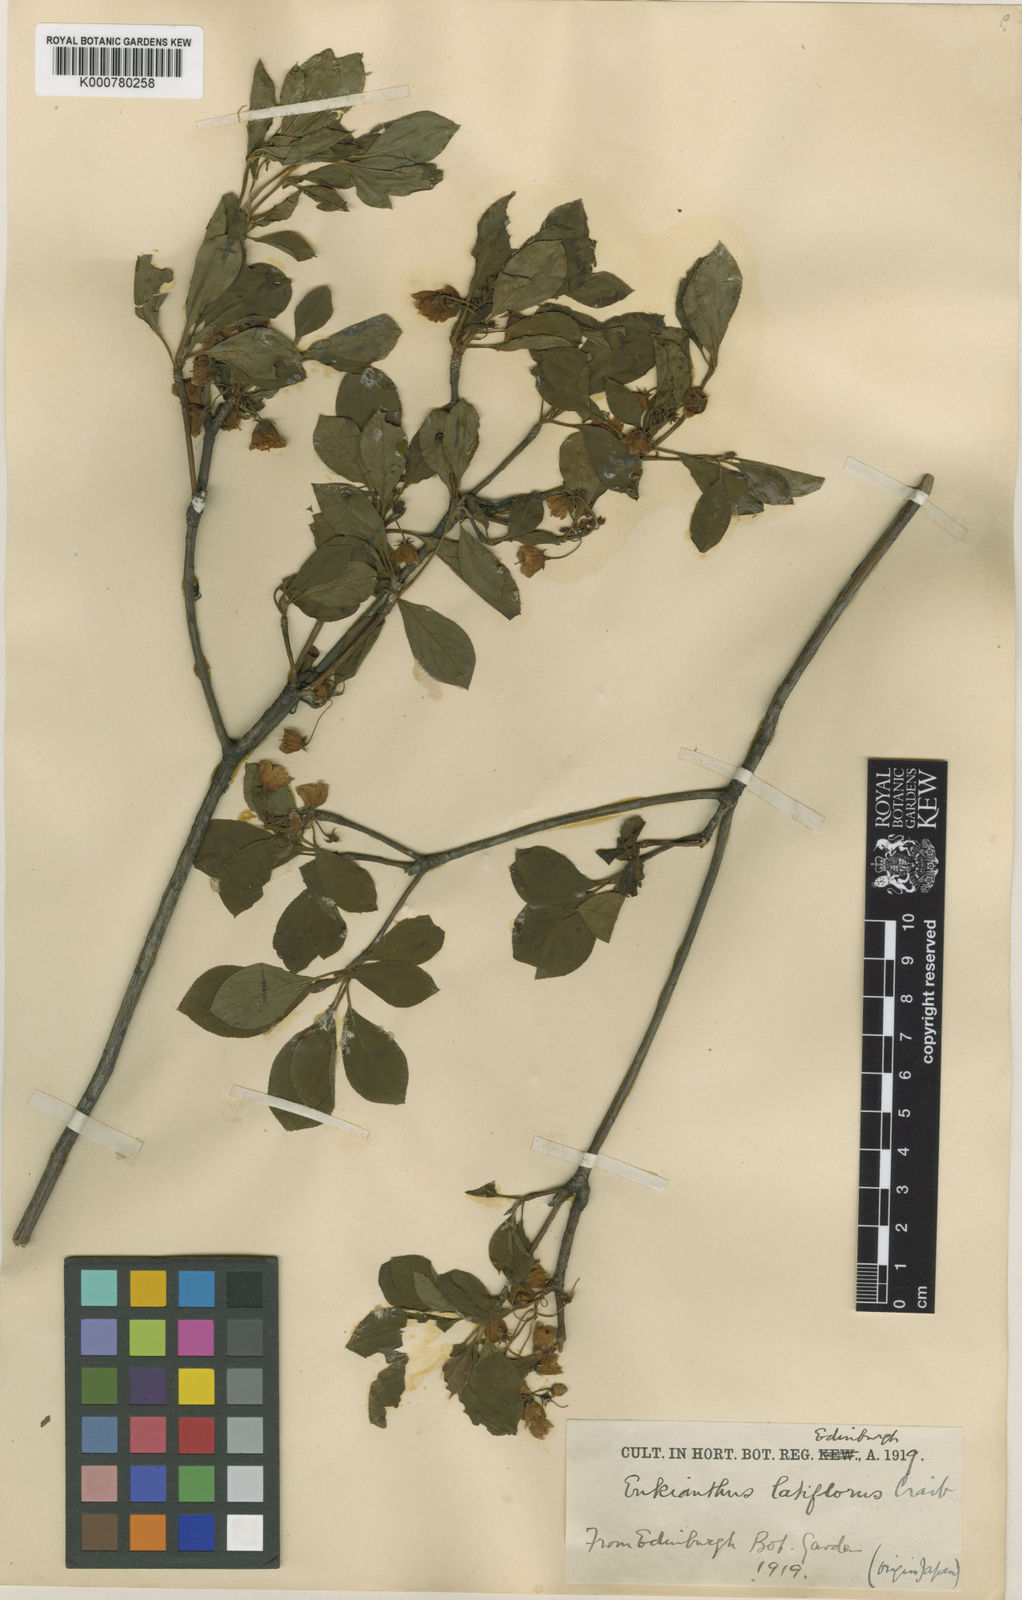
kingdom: Plantae
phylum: Tracheophyta
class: Magnoliopsida
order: Ericales
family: Ericaceae
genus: Enkianthus
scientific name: Enkianthus campanulatus
